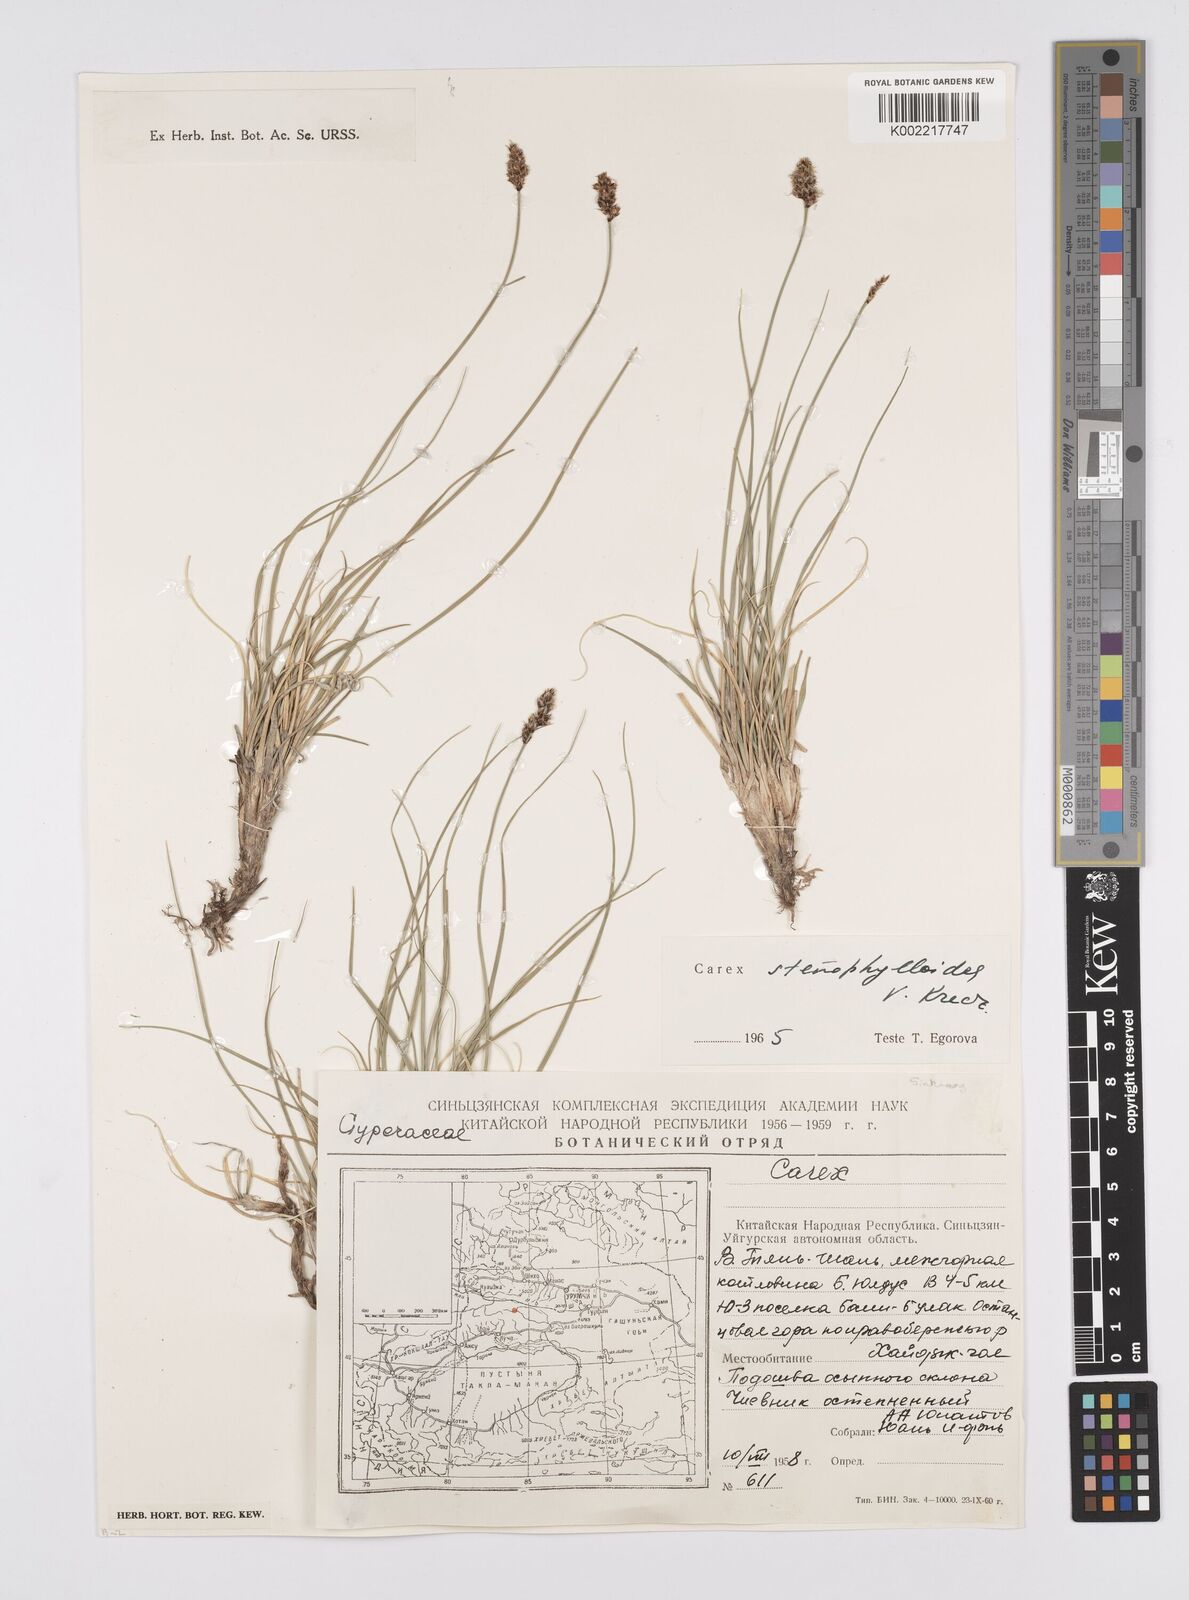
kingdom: Plantae
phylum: Tracheophyta
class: Liliopsida
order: Poales
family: Cyperaceae
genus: Carex
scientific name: Carex stenophylla
